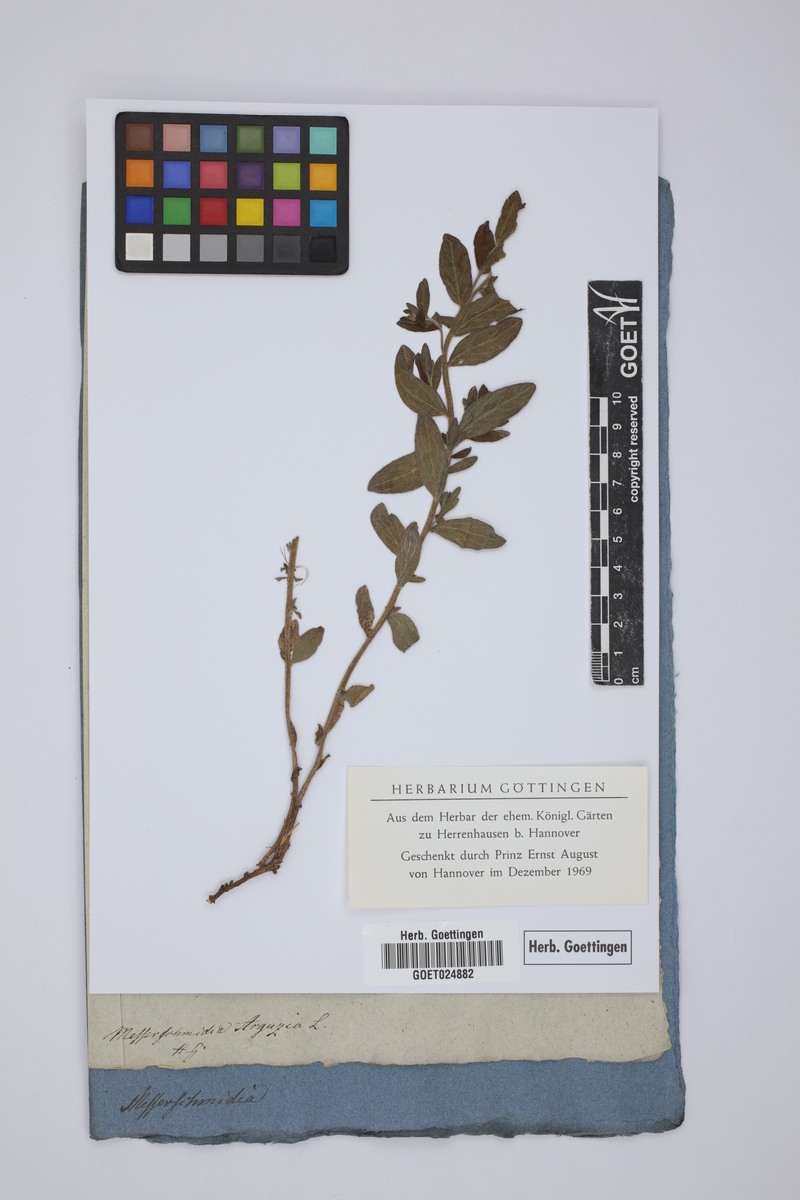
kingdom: Plantae
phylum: Tracheophyta
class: Magnoliopsida
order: Boraginales
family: Heliotropiaceae
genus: Tournefortia
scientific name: Tournefortia sibirica
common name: Siberian sea rosemary
